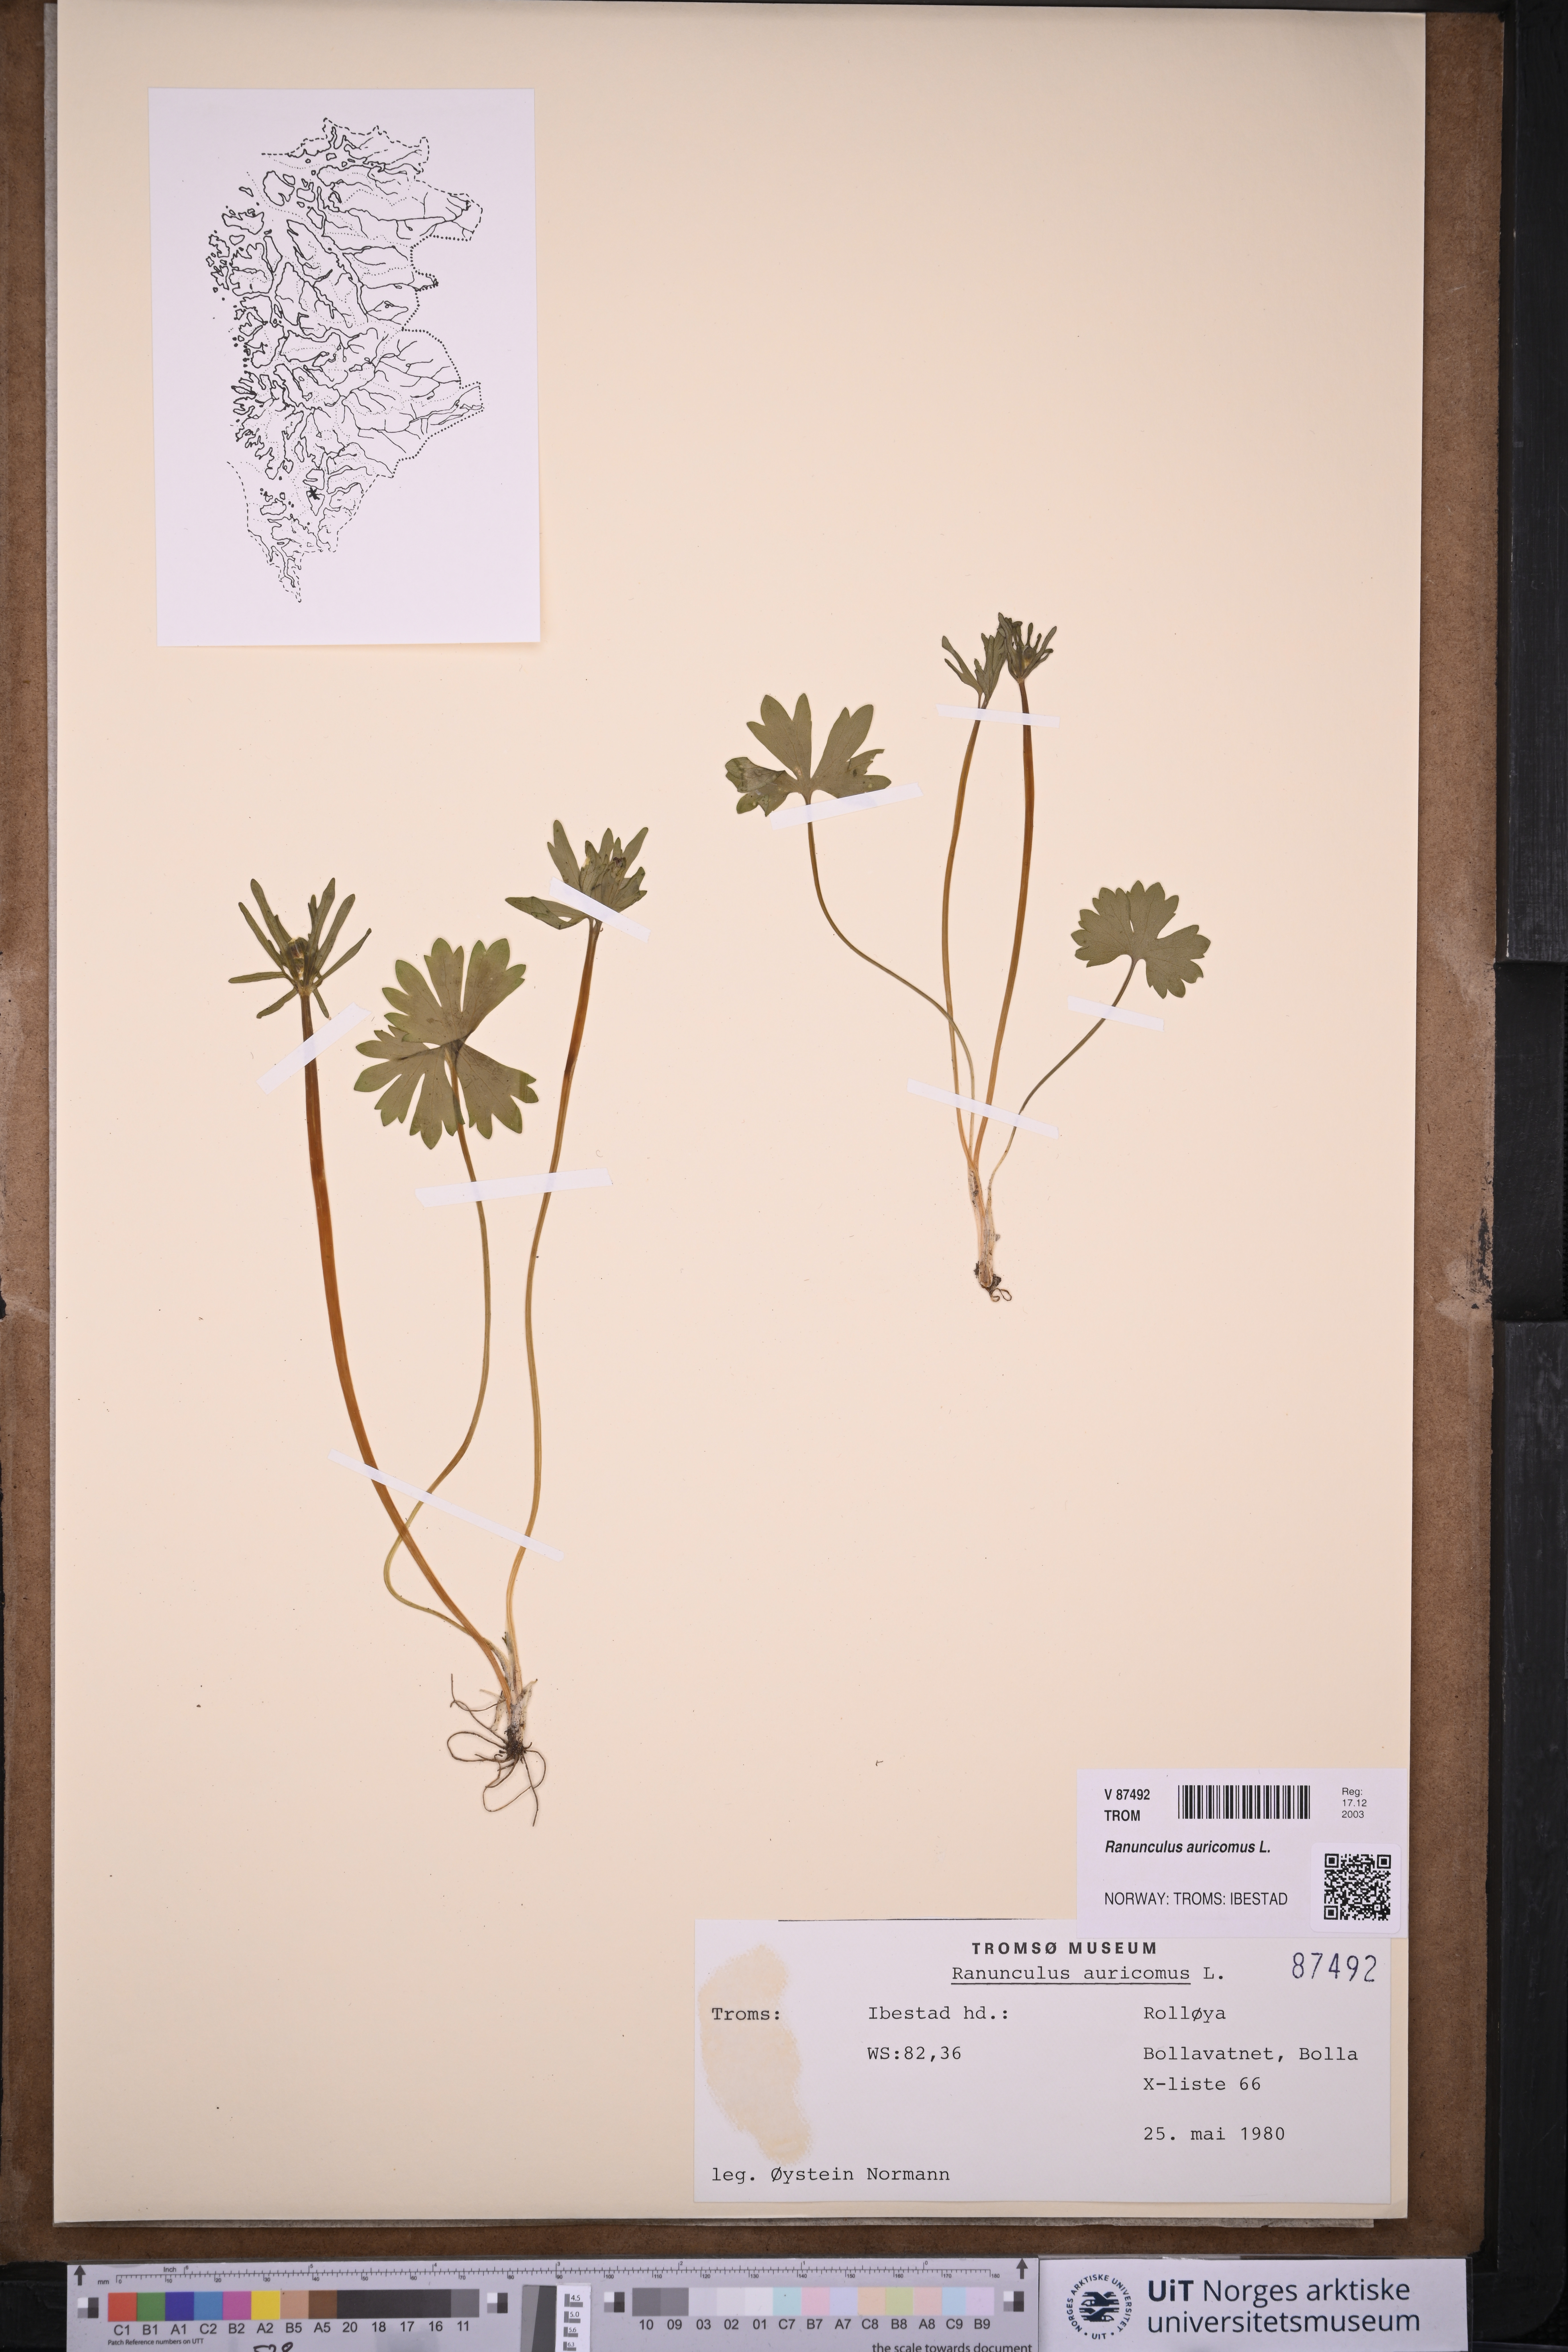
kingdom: Plantae
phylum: Tracheophyta
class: Magnoliopsida
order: Ranunculales
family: Ranunculaceae
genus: Ranunculus
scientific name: Ranunculus auricomus
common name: Goldilocks buttercup
